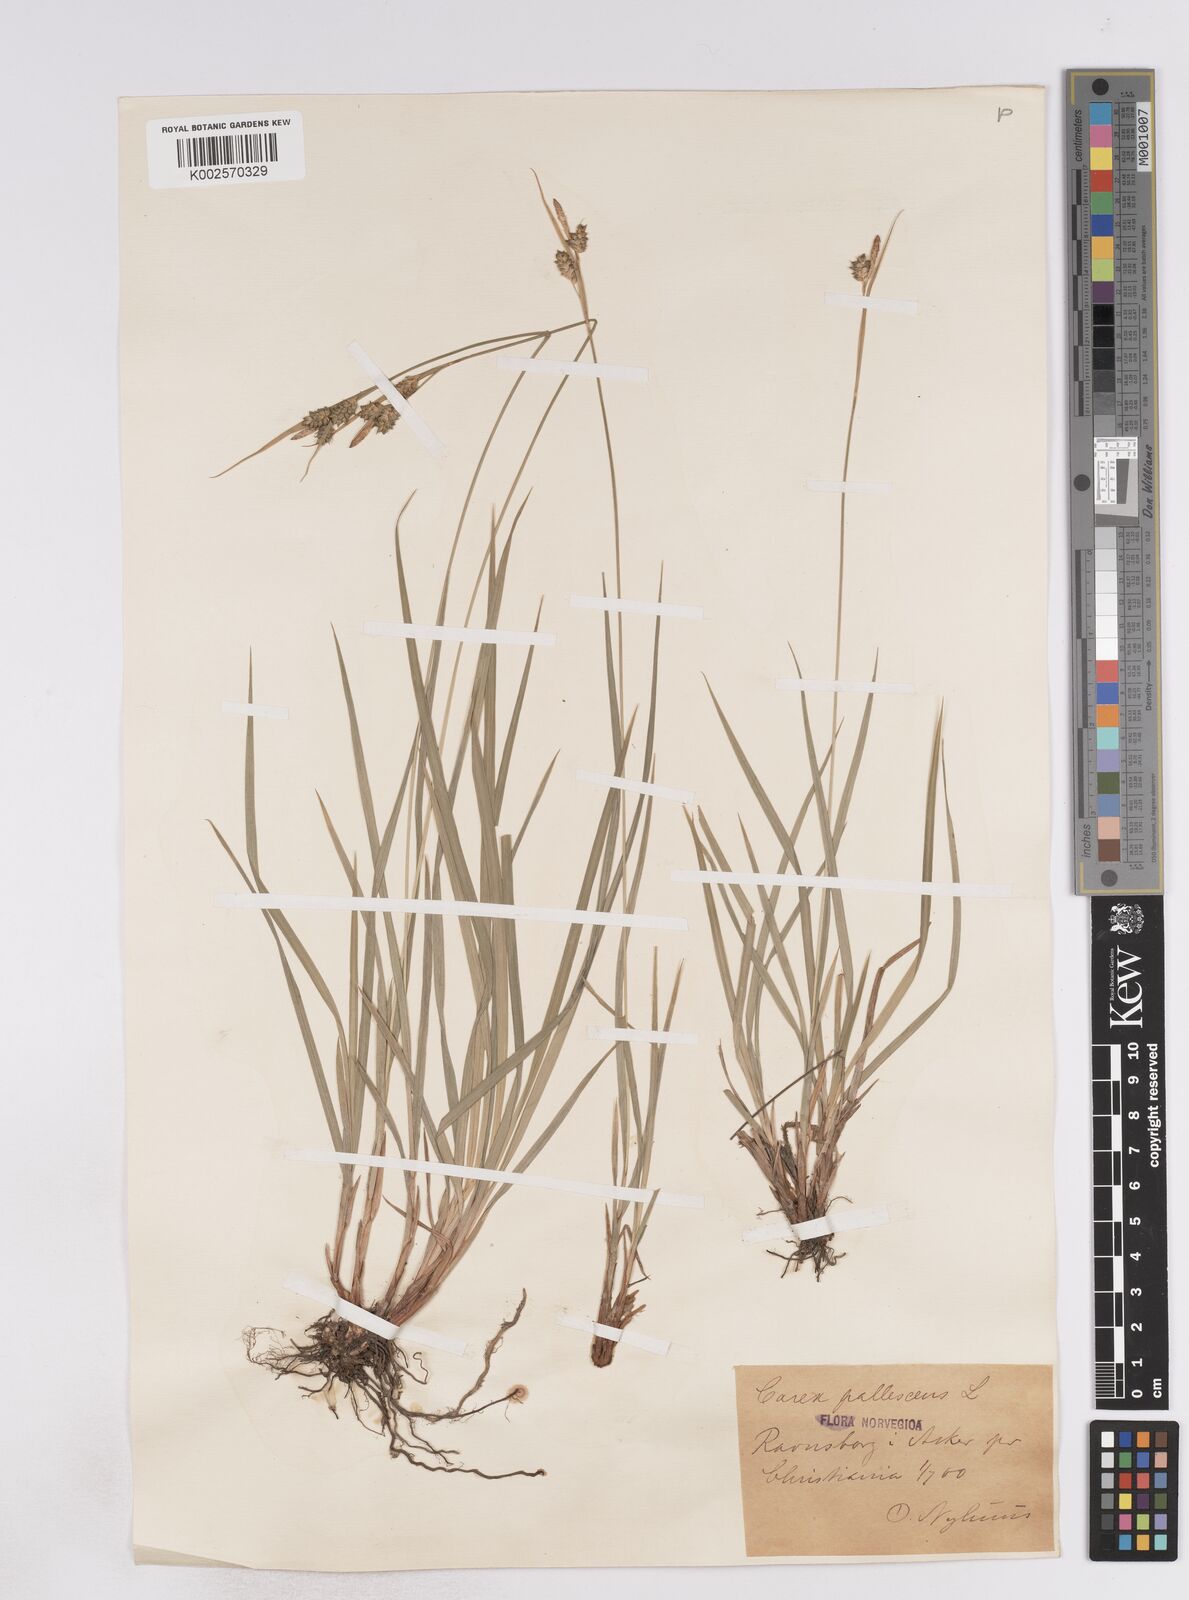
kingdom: Plantae
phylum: Tracheophyta
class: Liliopsida
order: Poales
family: Cyperaceae
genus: Carex
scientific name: Carex pallescens
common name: Pale sedge
